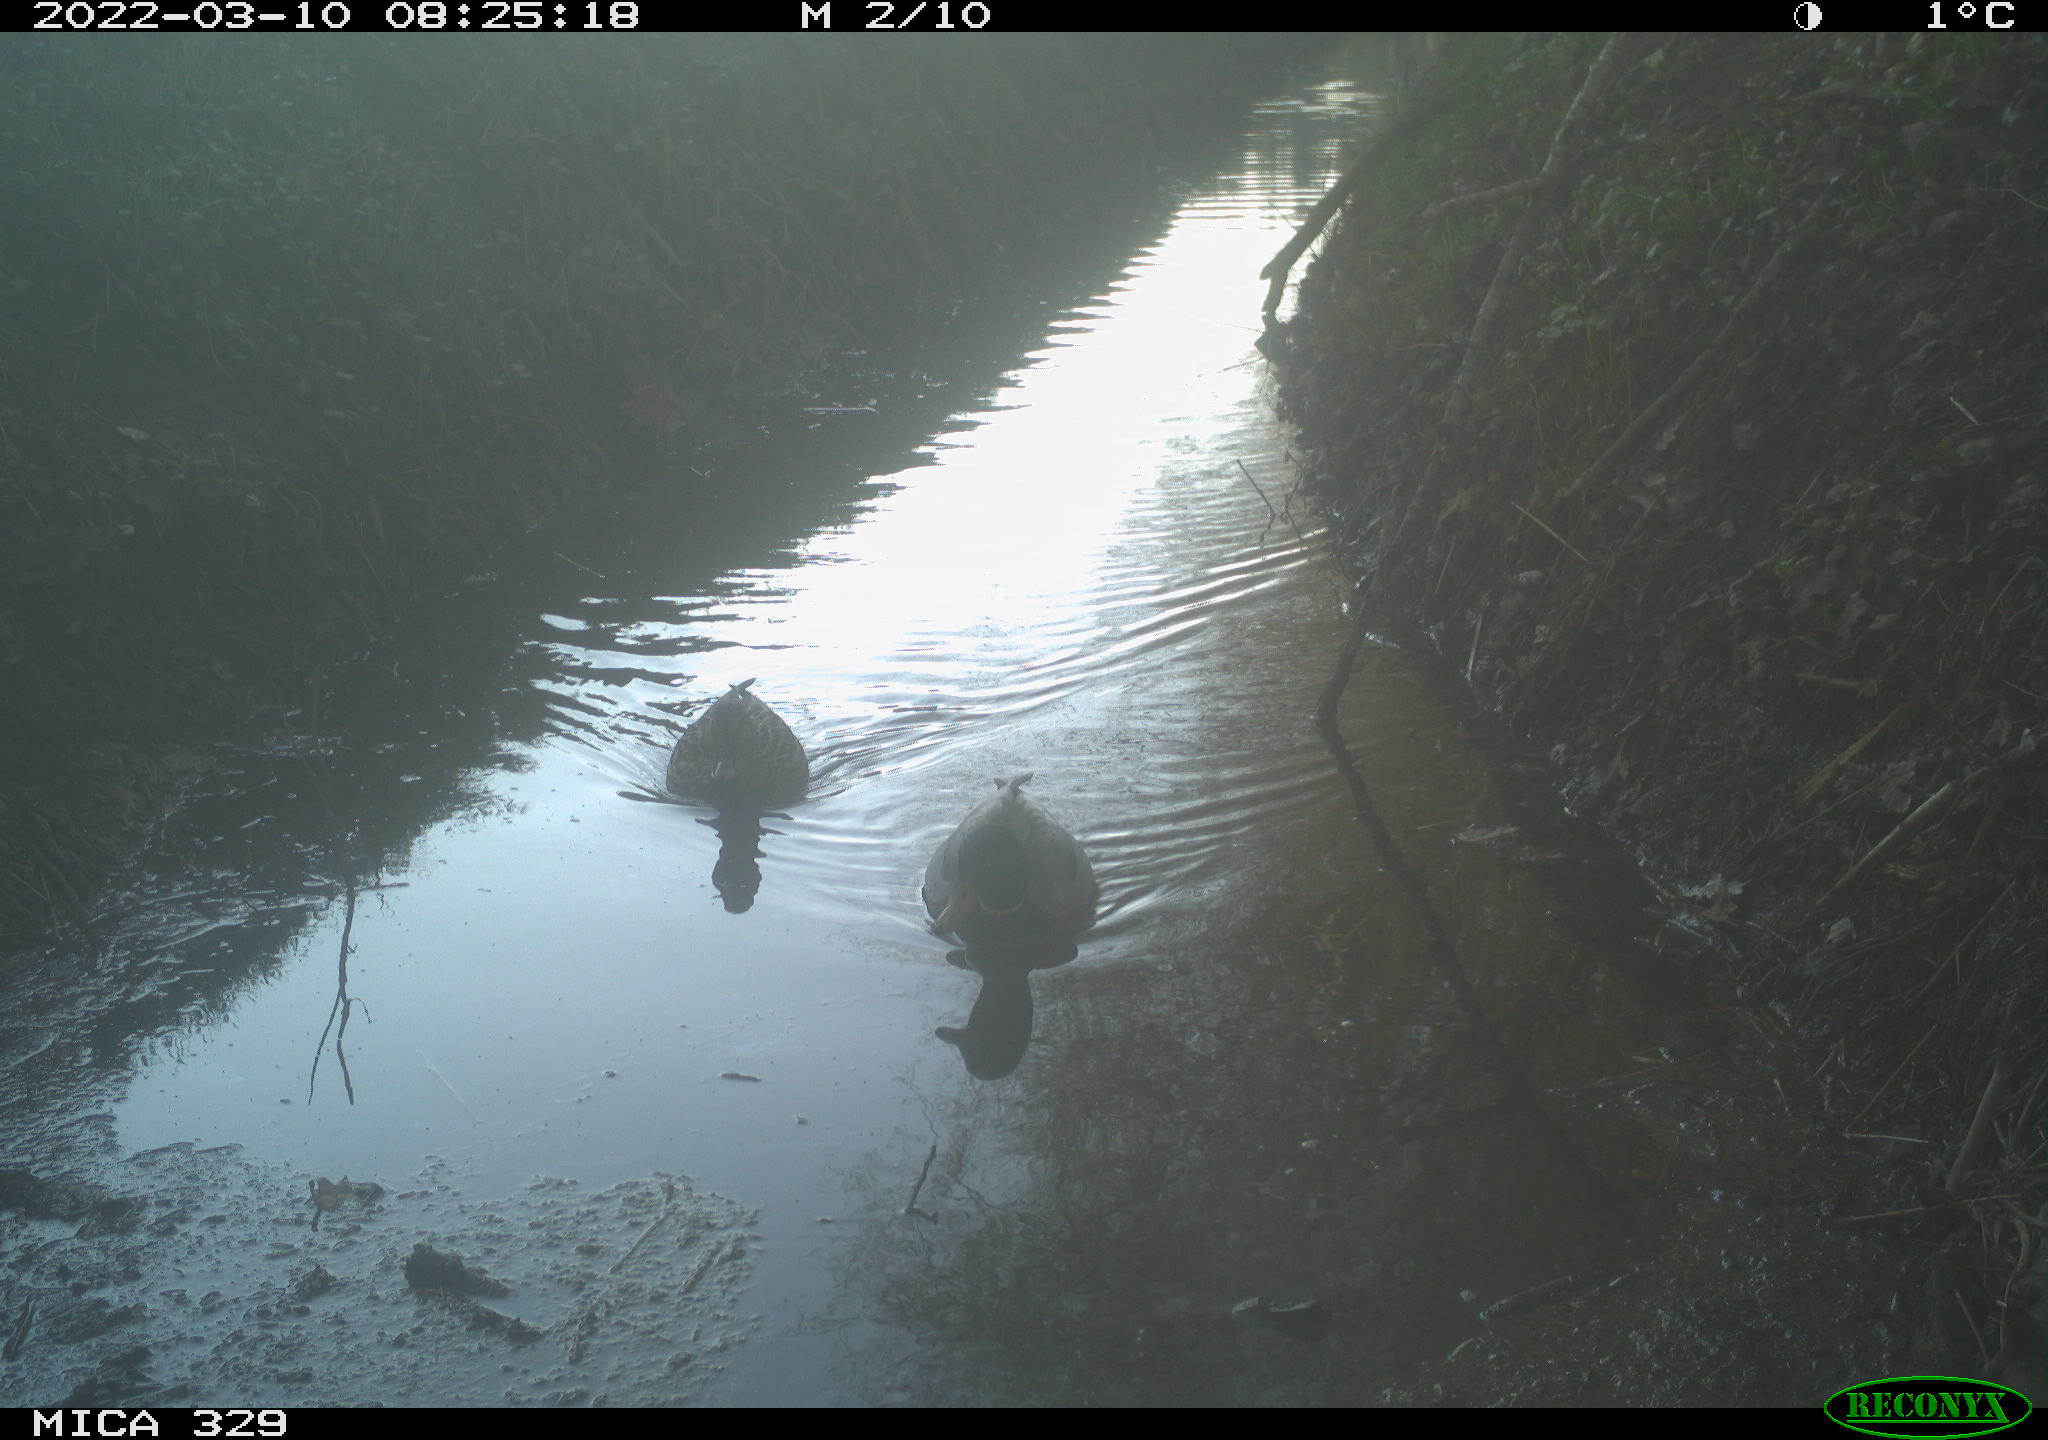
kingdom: Animalia
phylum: Chordata
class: Aves
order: Anseriformes
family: Anatidae
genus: Anas
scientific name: Anas platyrhynchos
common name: Mallard
